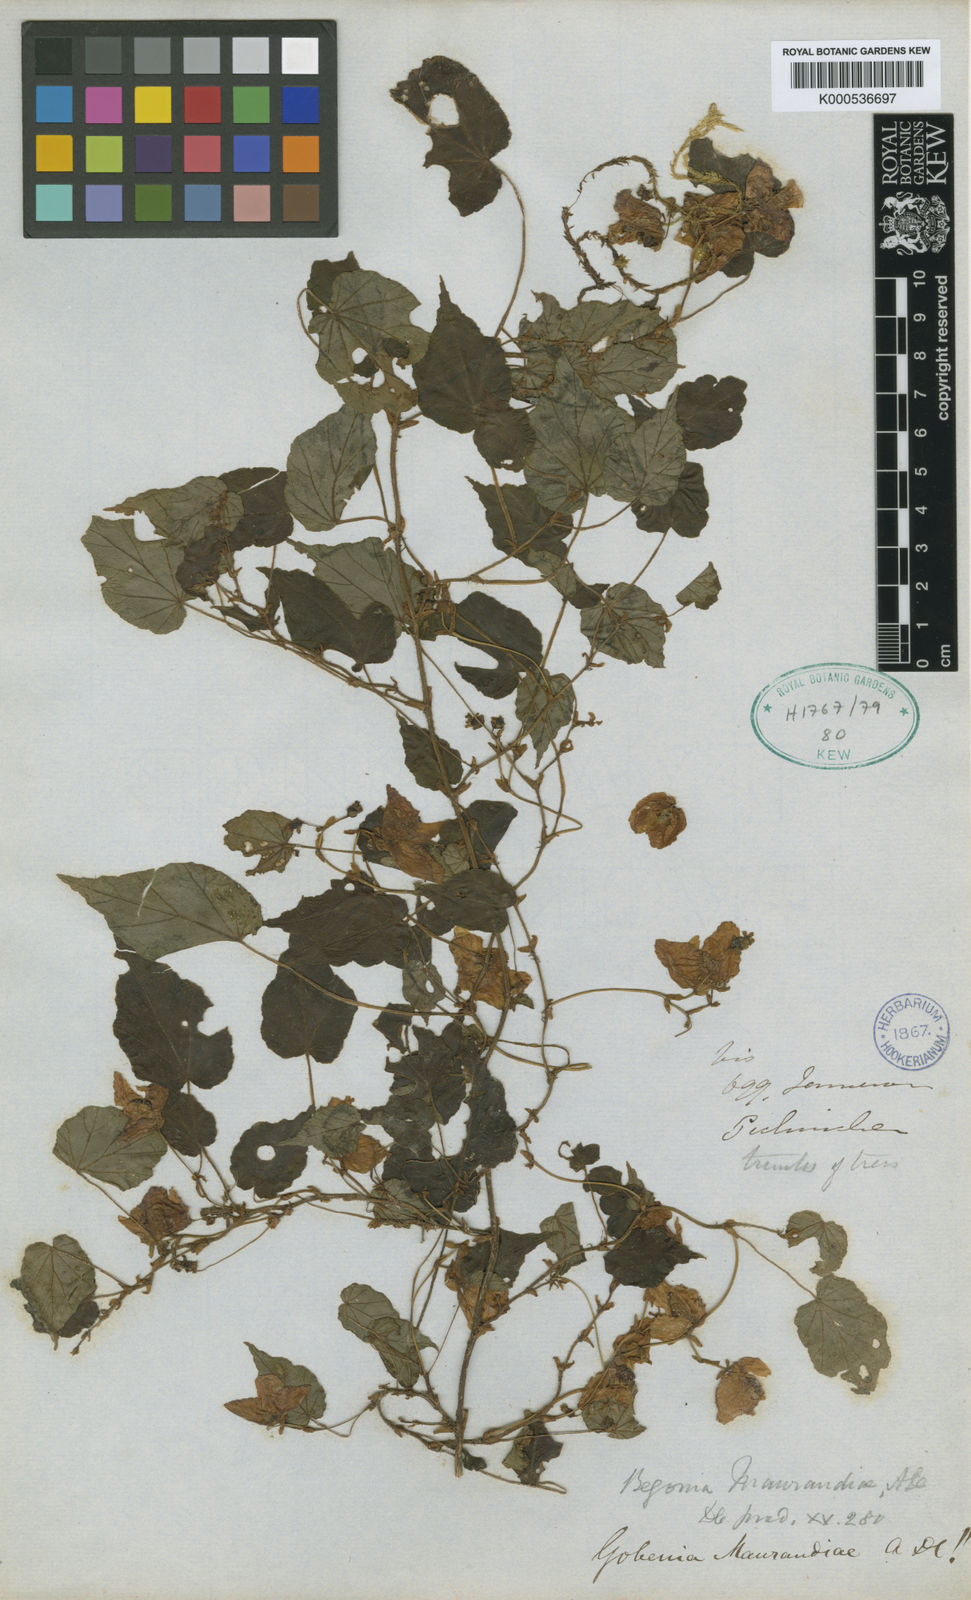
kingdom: Plantae
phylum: Tracheophyta
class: Magnoliopsida
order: Cucurbitales
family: Begoniaceae
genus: Begonia
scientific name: Begonia maurandiae
